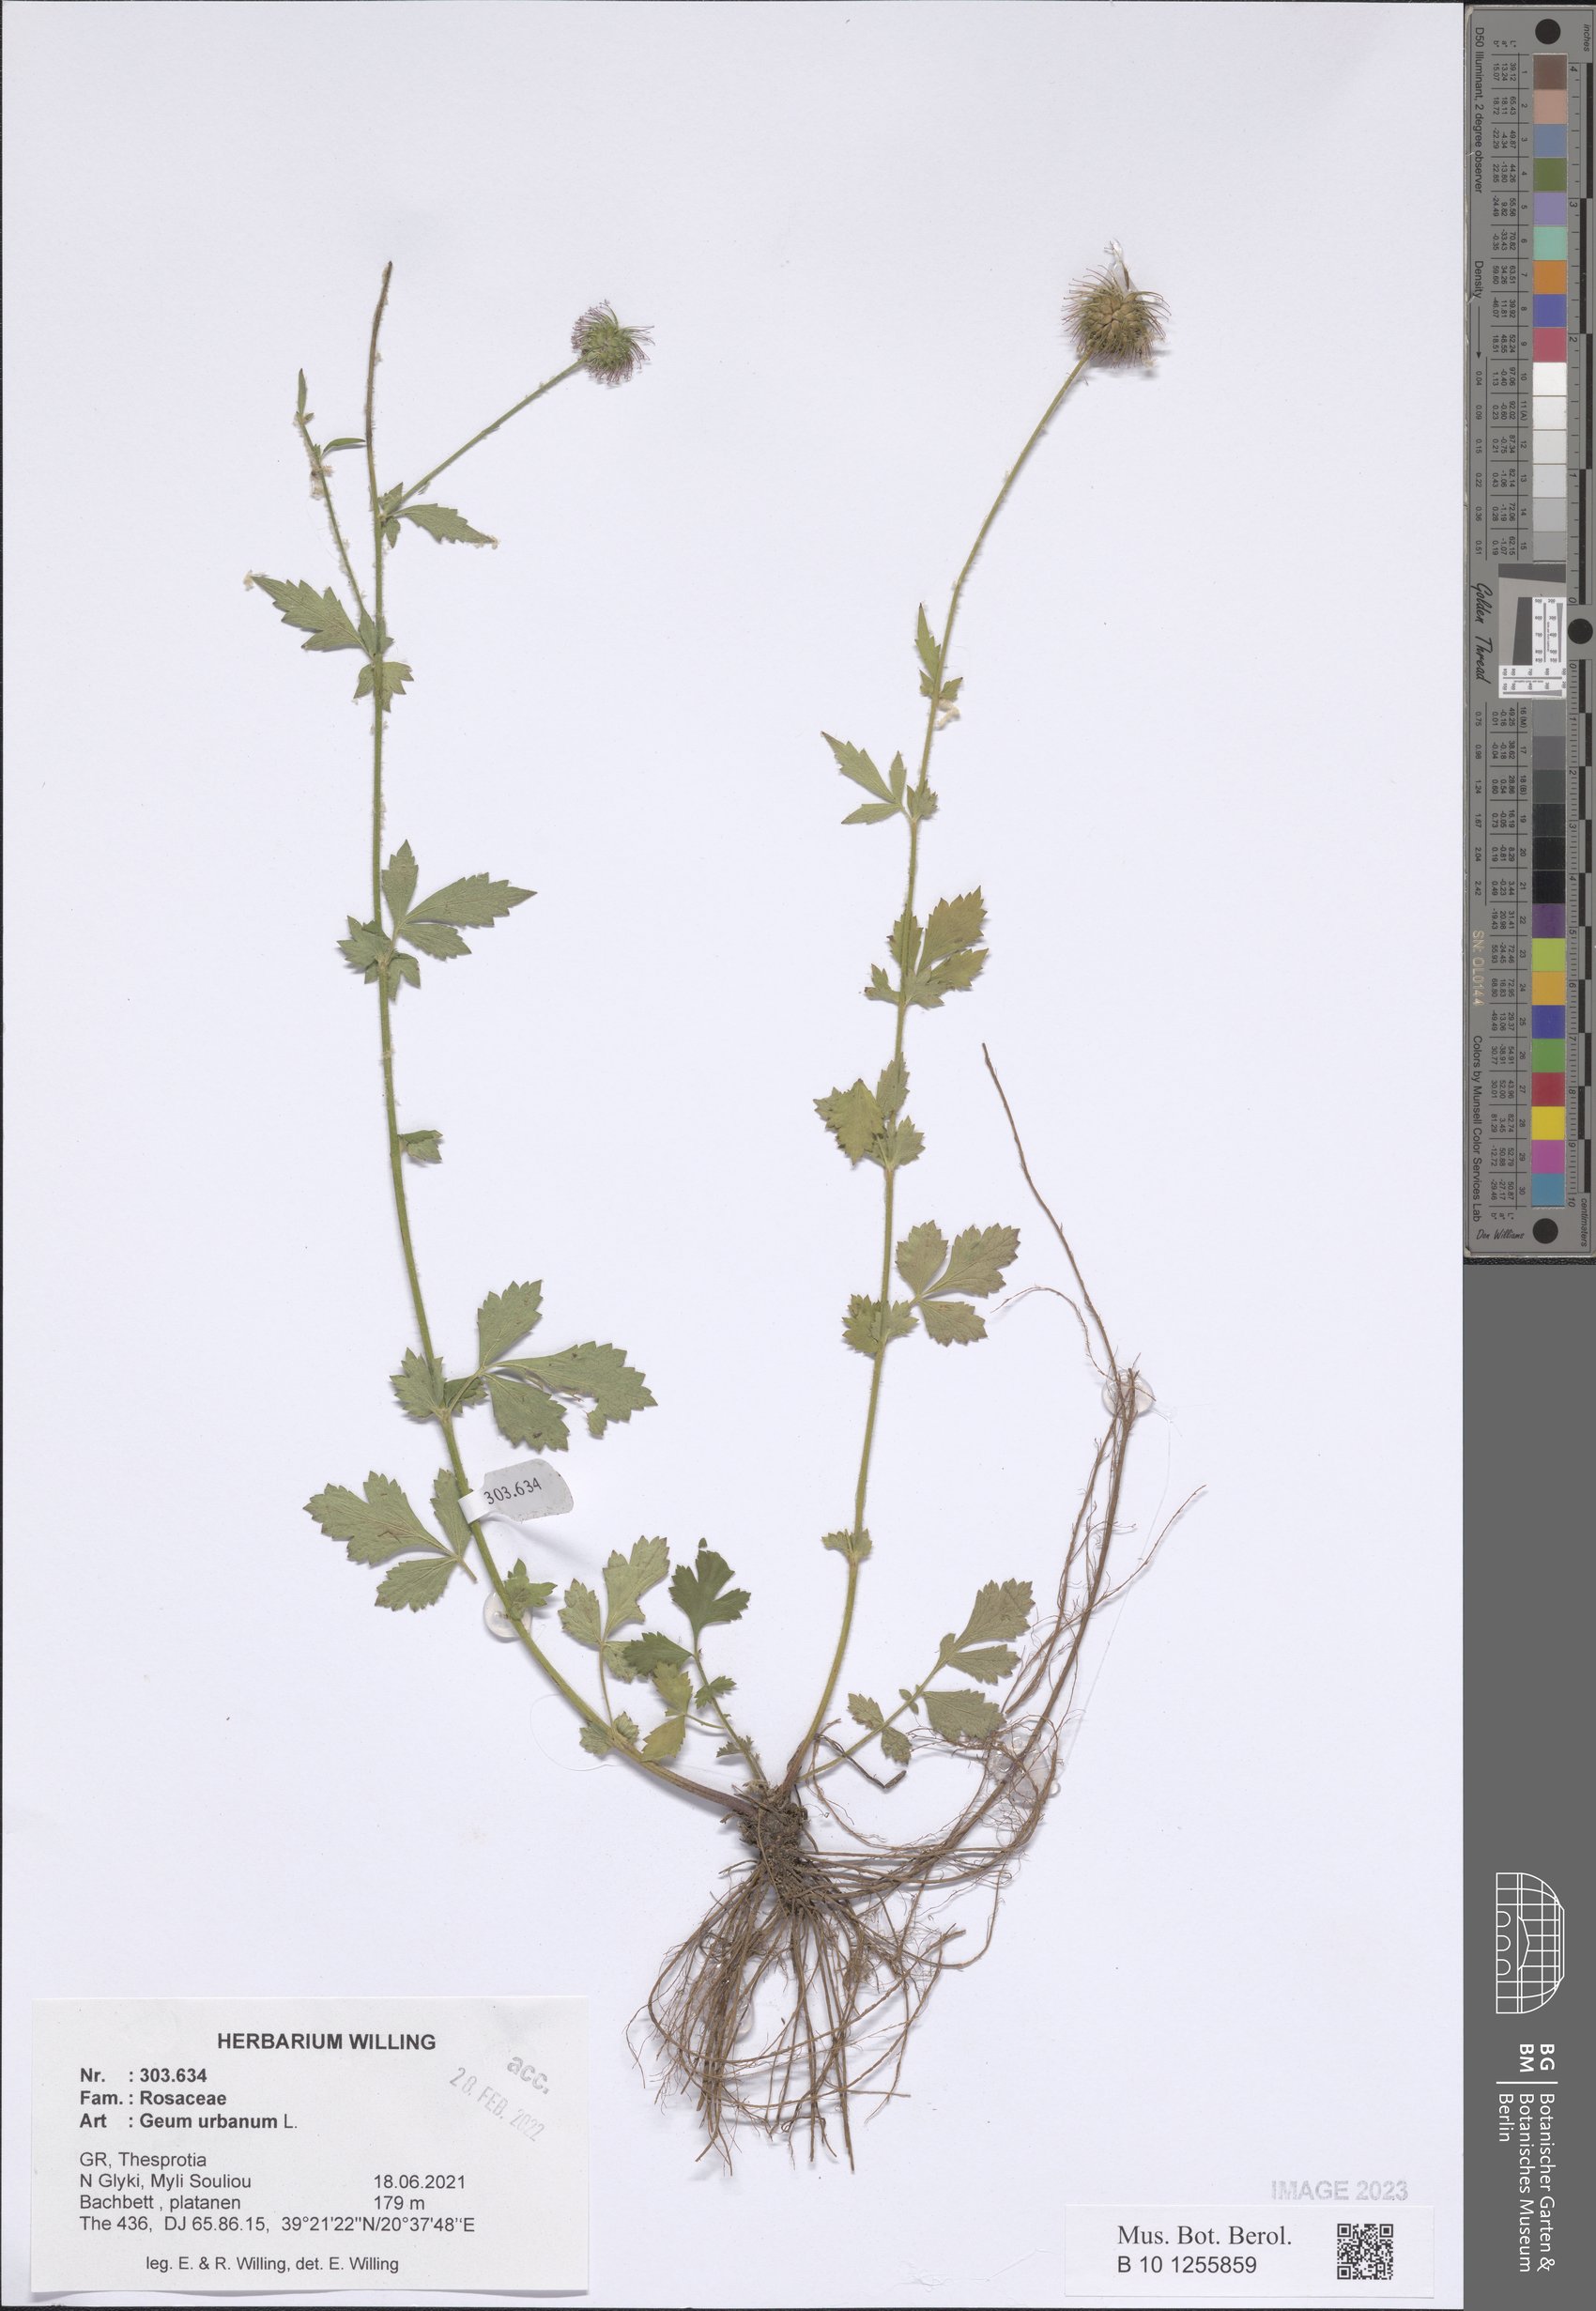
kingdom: Plantae
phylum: Tracheophyta
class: Magnoliopsida
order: Rosales
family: Rosaceae
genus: Geum
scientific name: Geum urbanum
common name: Wood avens
